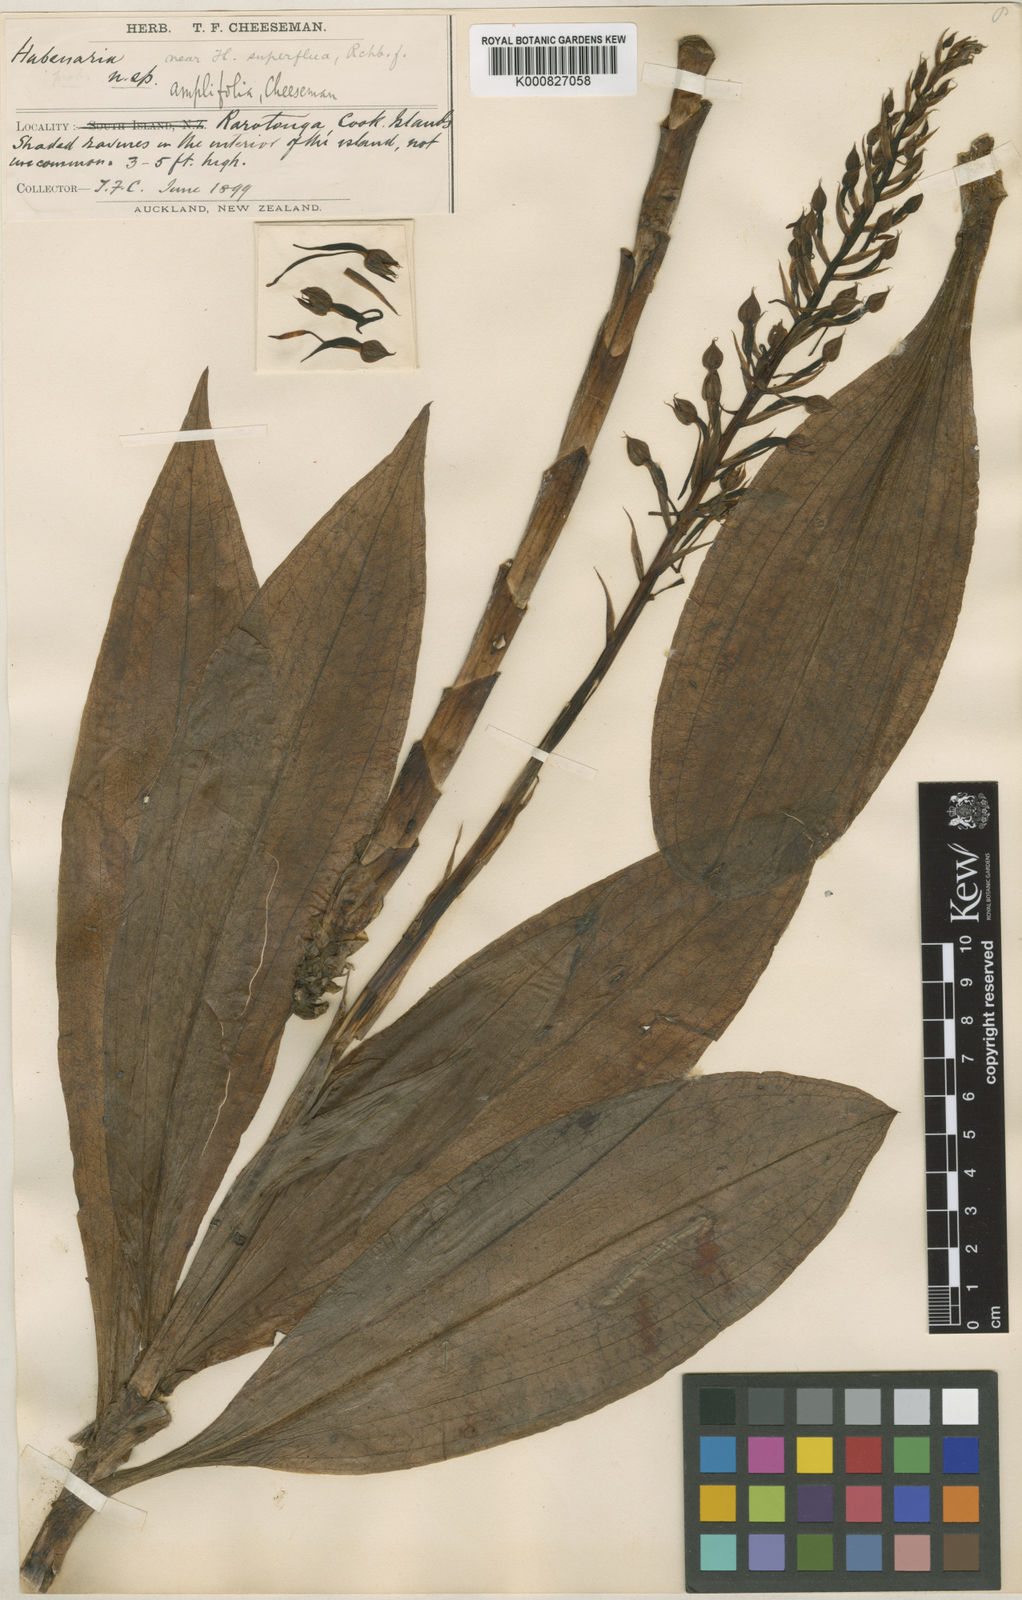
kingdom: Plantae
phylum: Tracheophyta
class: Liliopsida
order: Asparagales
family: Orchidaceae
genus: Habenaria
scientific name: Habenaria amplifolia
